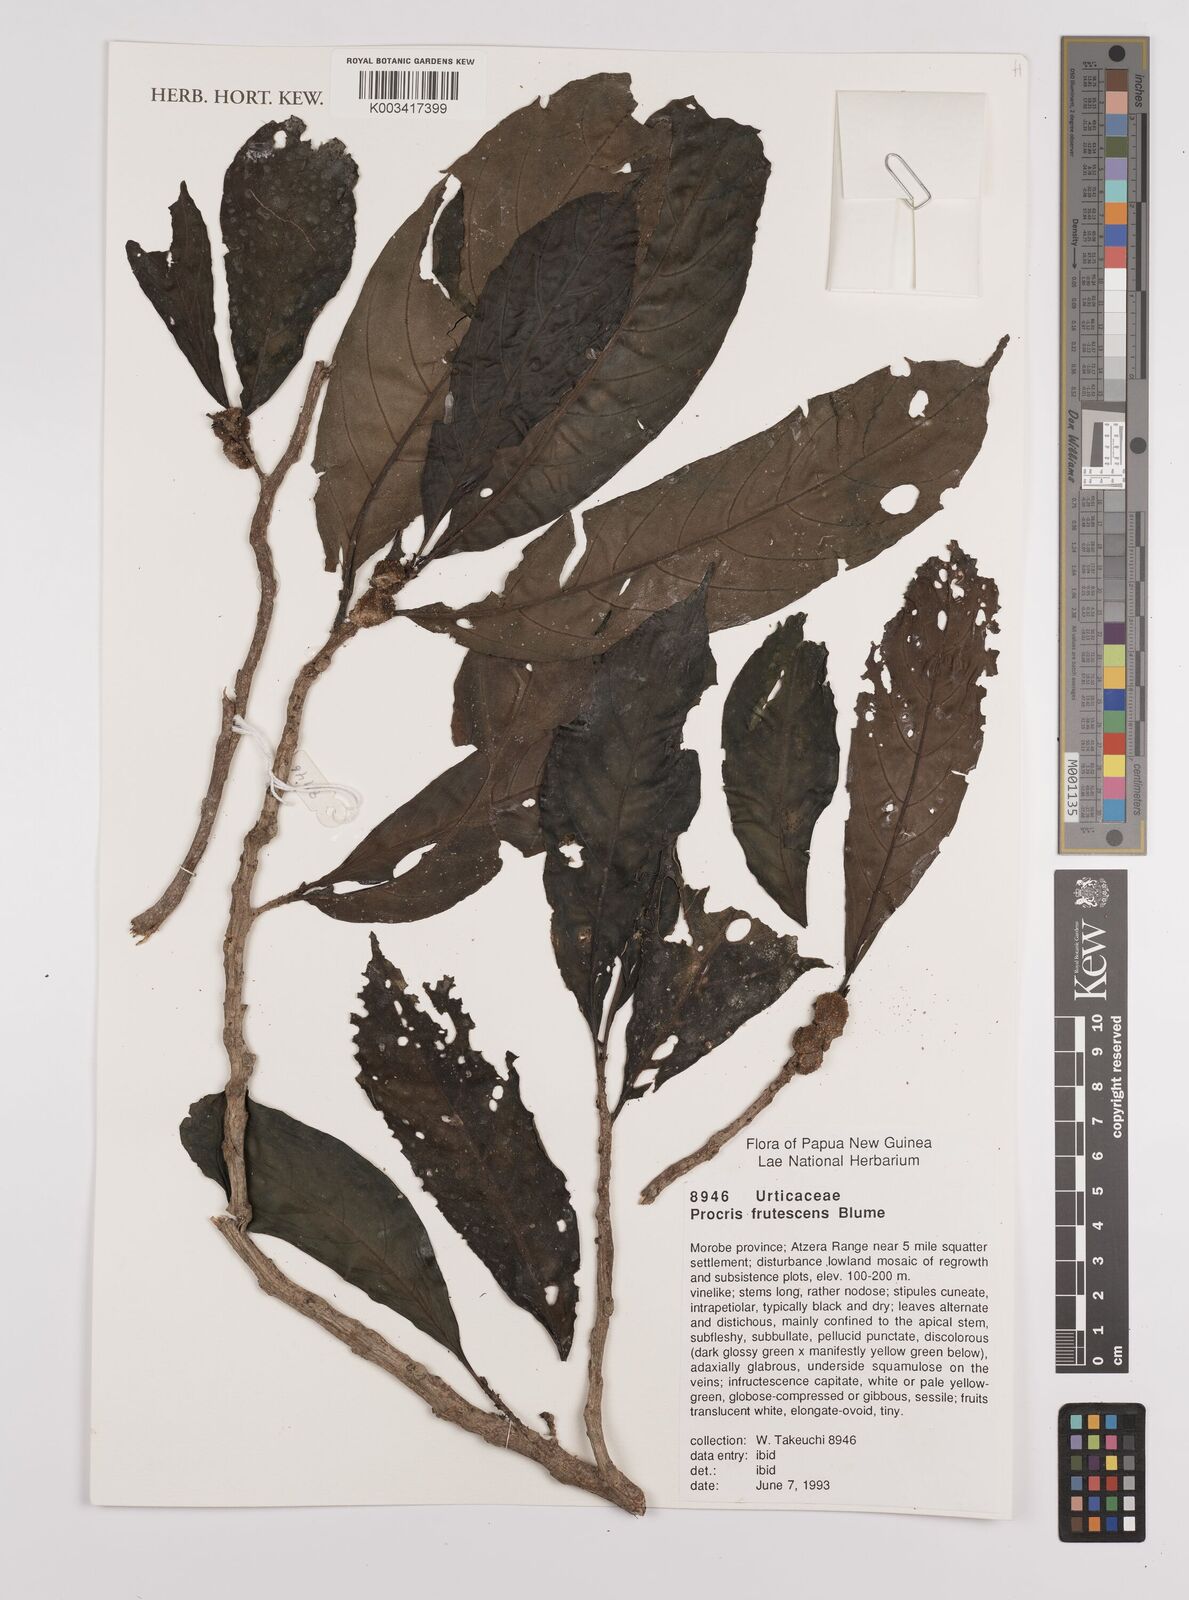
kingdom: Plantae
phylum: Tracheophyta
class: Magnoliopsida
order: Rosales
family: Urticaceae
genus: Procris
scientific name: Procris frutescens
